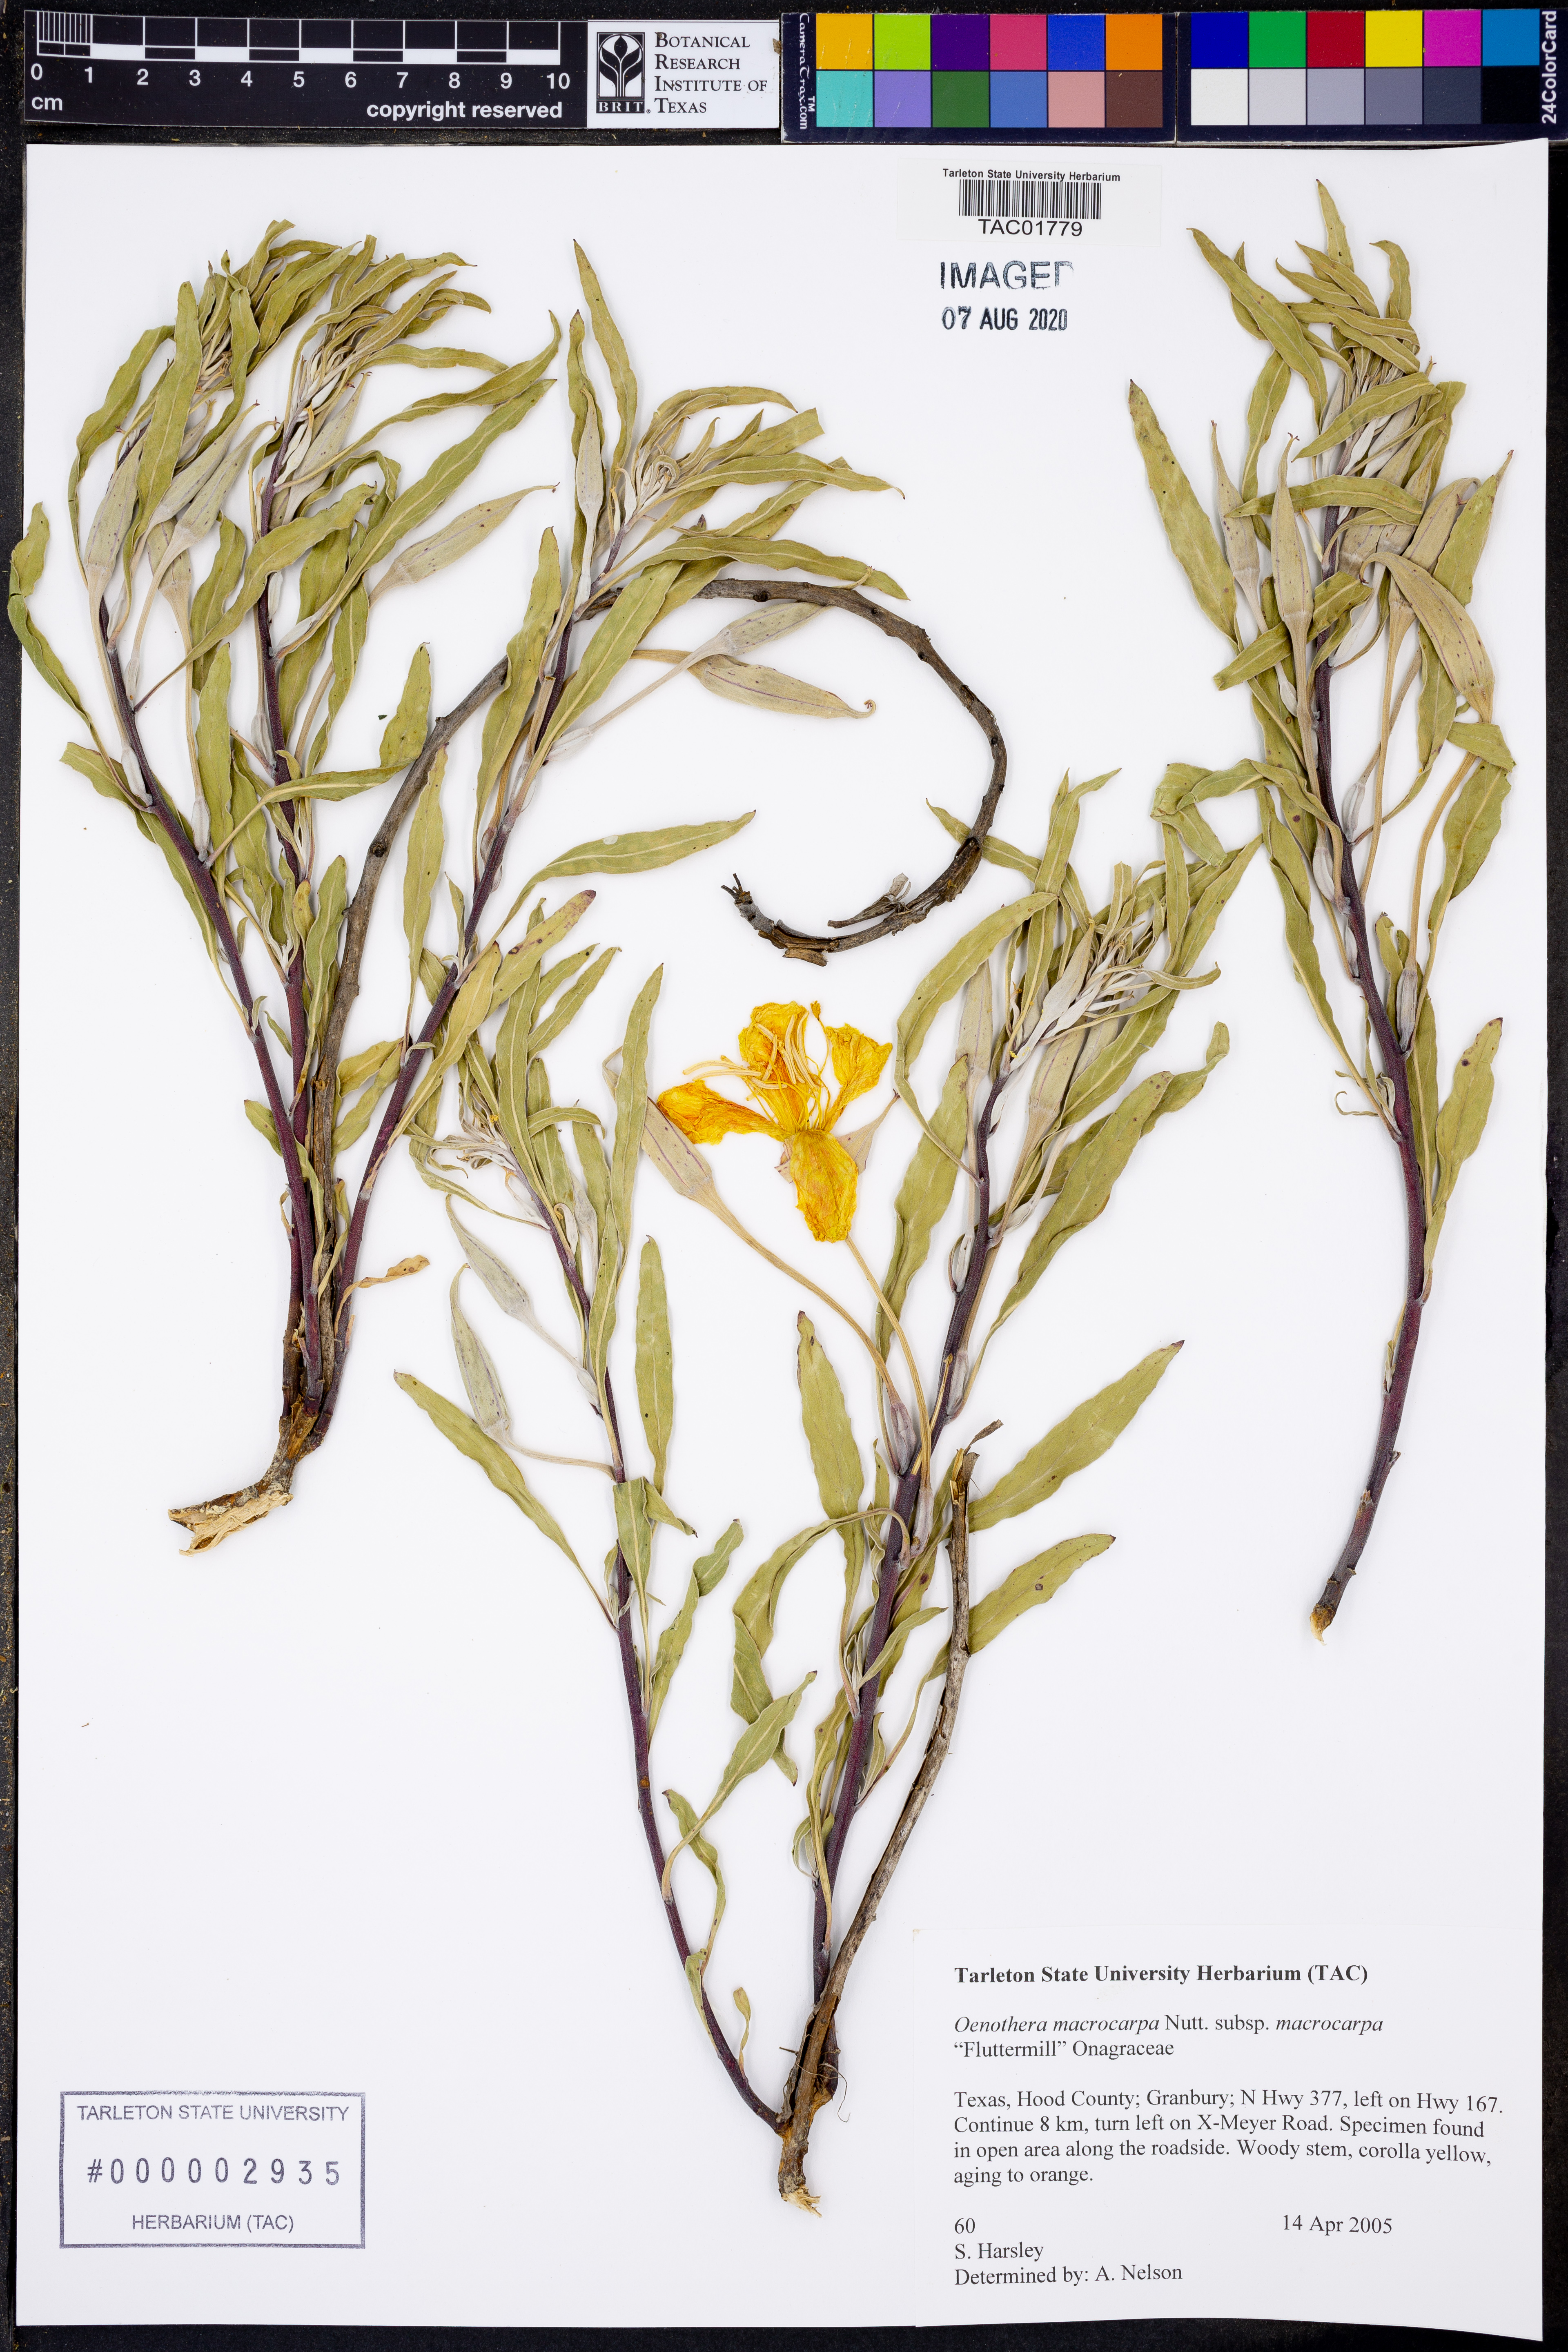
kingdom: Plantae
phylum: Tracheophyta
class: Magnoliopsida
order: Myrtales
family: Onagraceae
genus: Oenothera
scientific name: Oenothera macrocarpa
